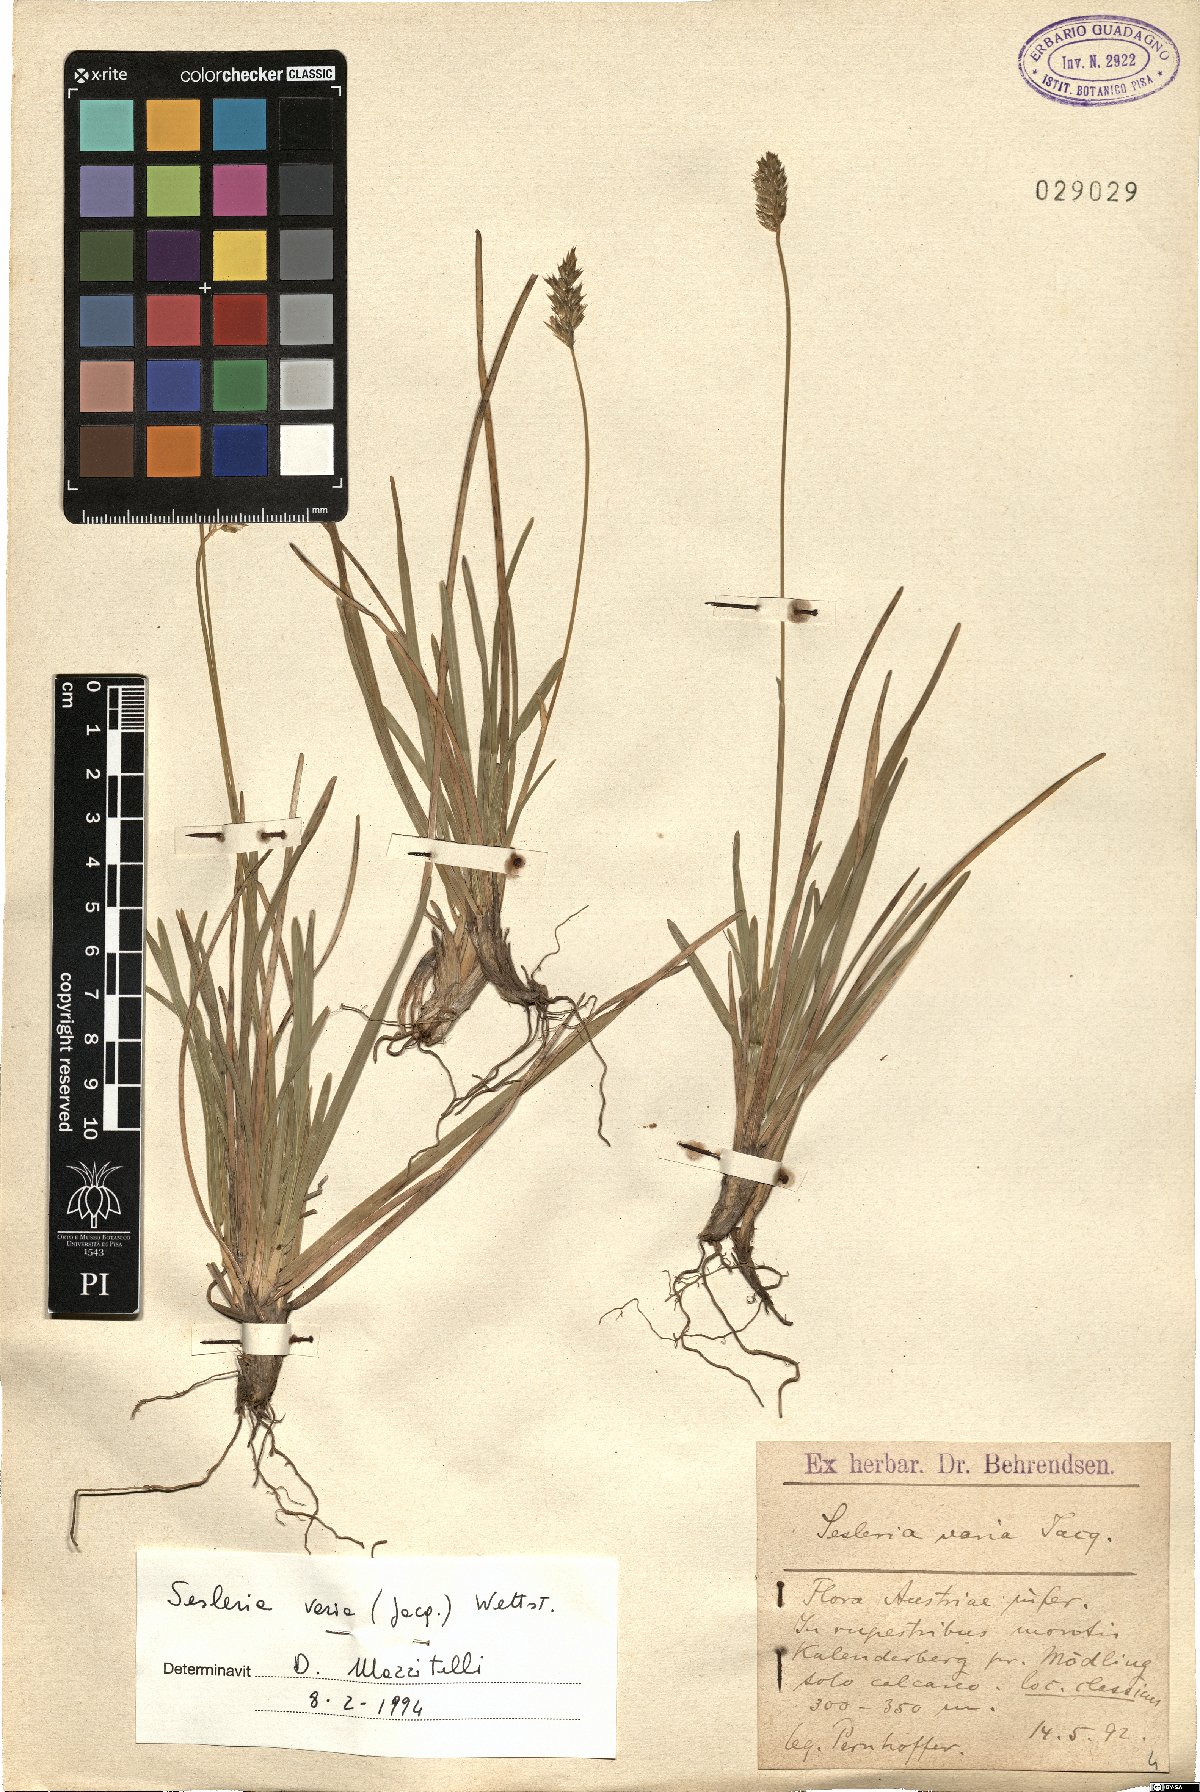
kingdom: Plantae
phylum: Tracheophyta
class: Liliopsida
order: Poales
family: Poaceae
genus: Sesleria
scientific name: Sesleria caerulea
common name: Blue moor-grass
